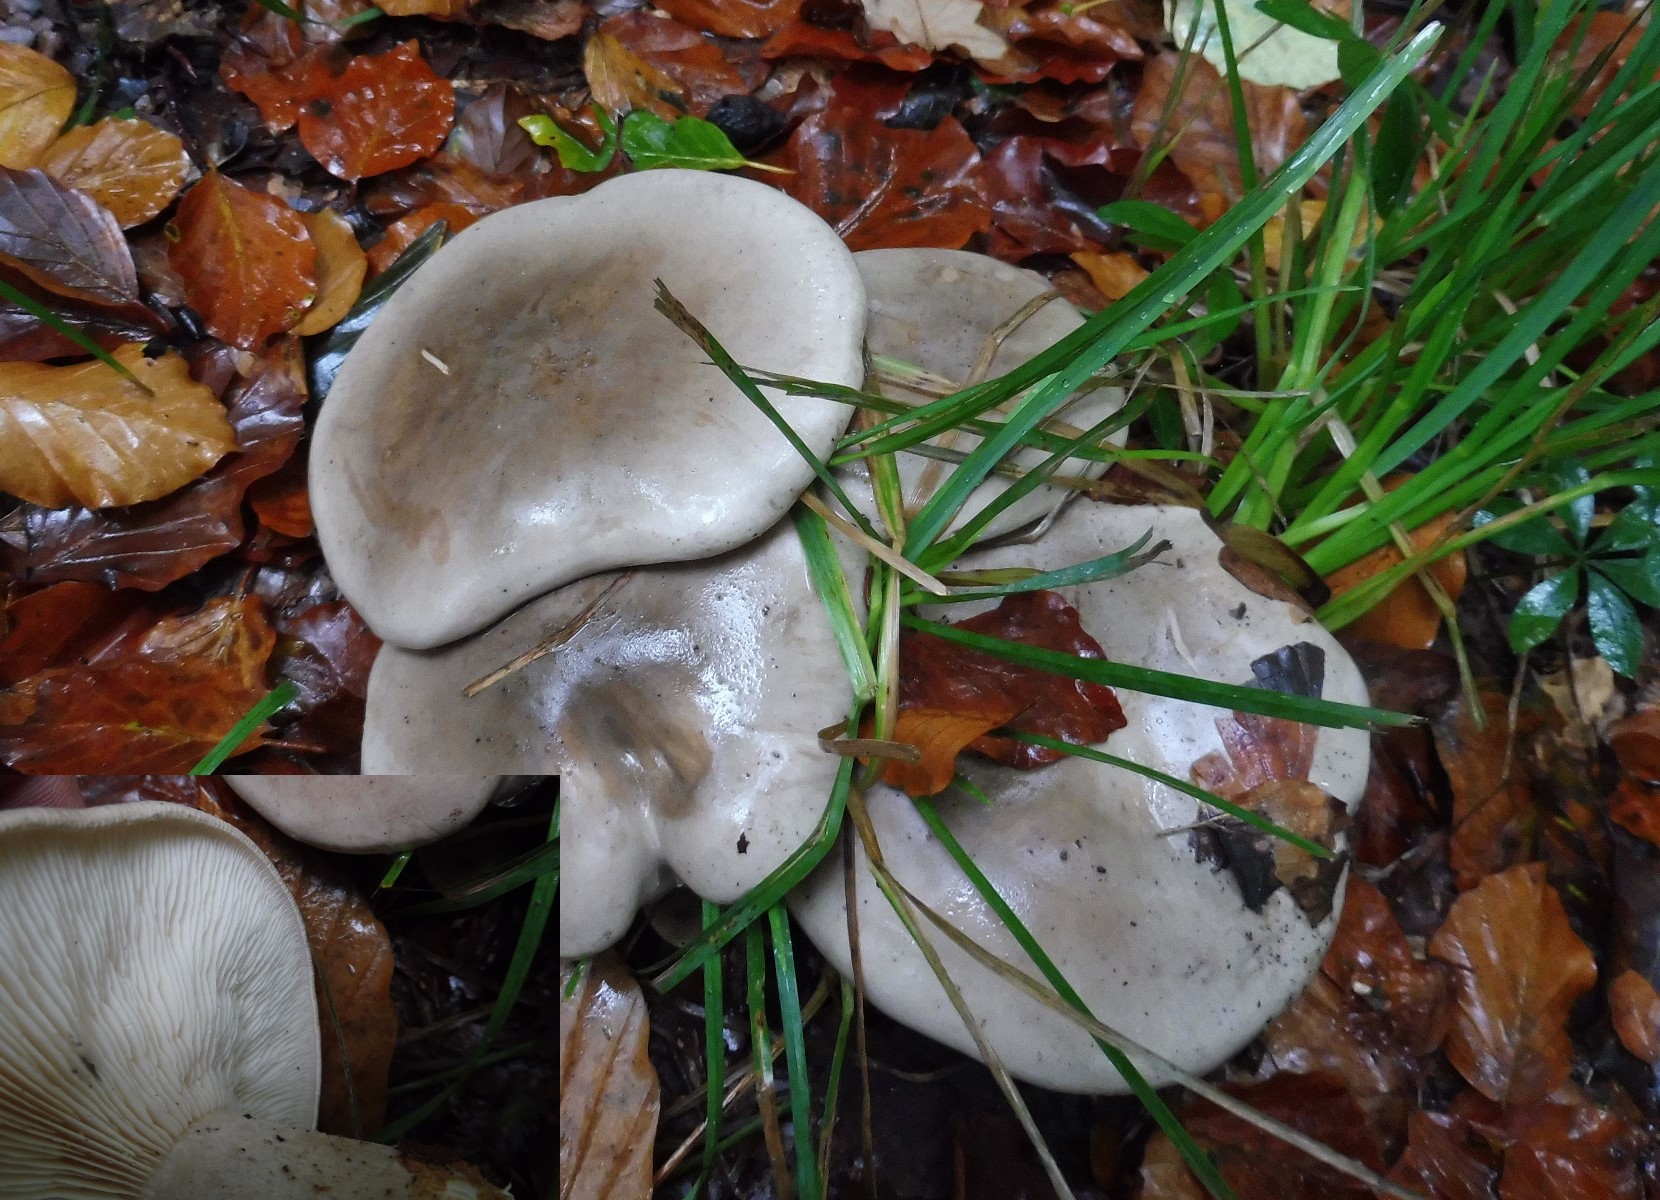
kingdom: Fungi
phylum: Basidiomycota
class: Agaricomycetes
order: Agaricales
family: Tricholomataceae
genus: Clitocybe
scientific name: Clitocybe nebularis
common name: tåge-tragthat
